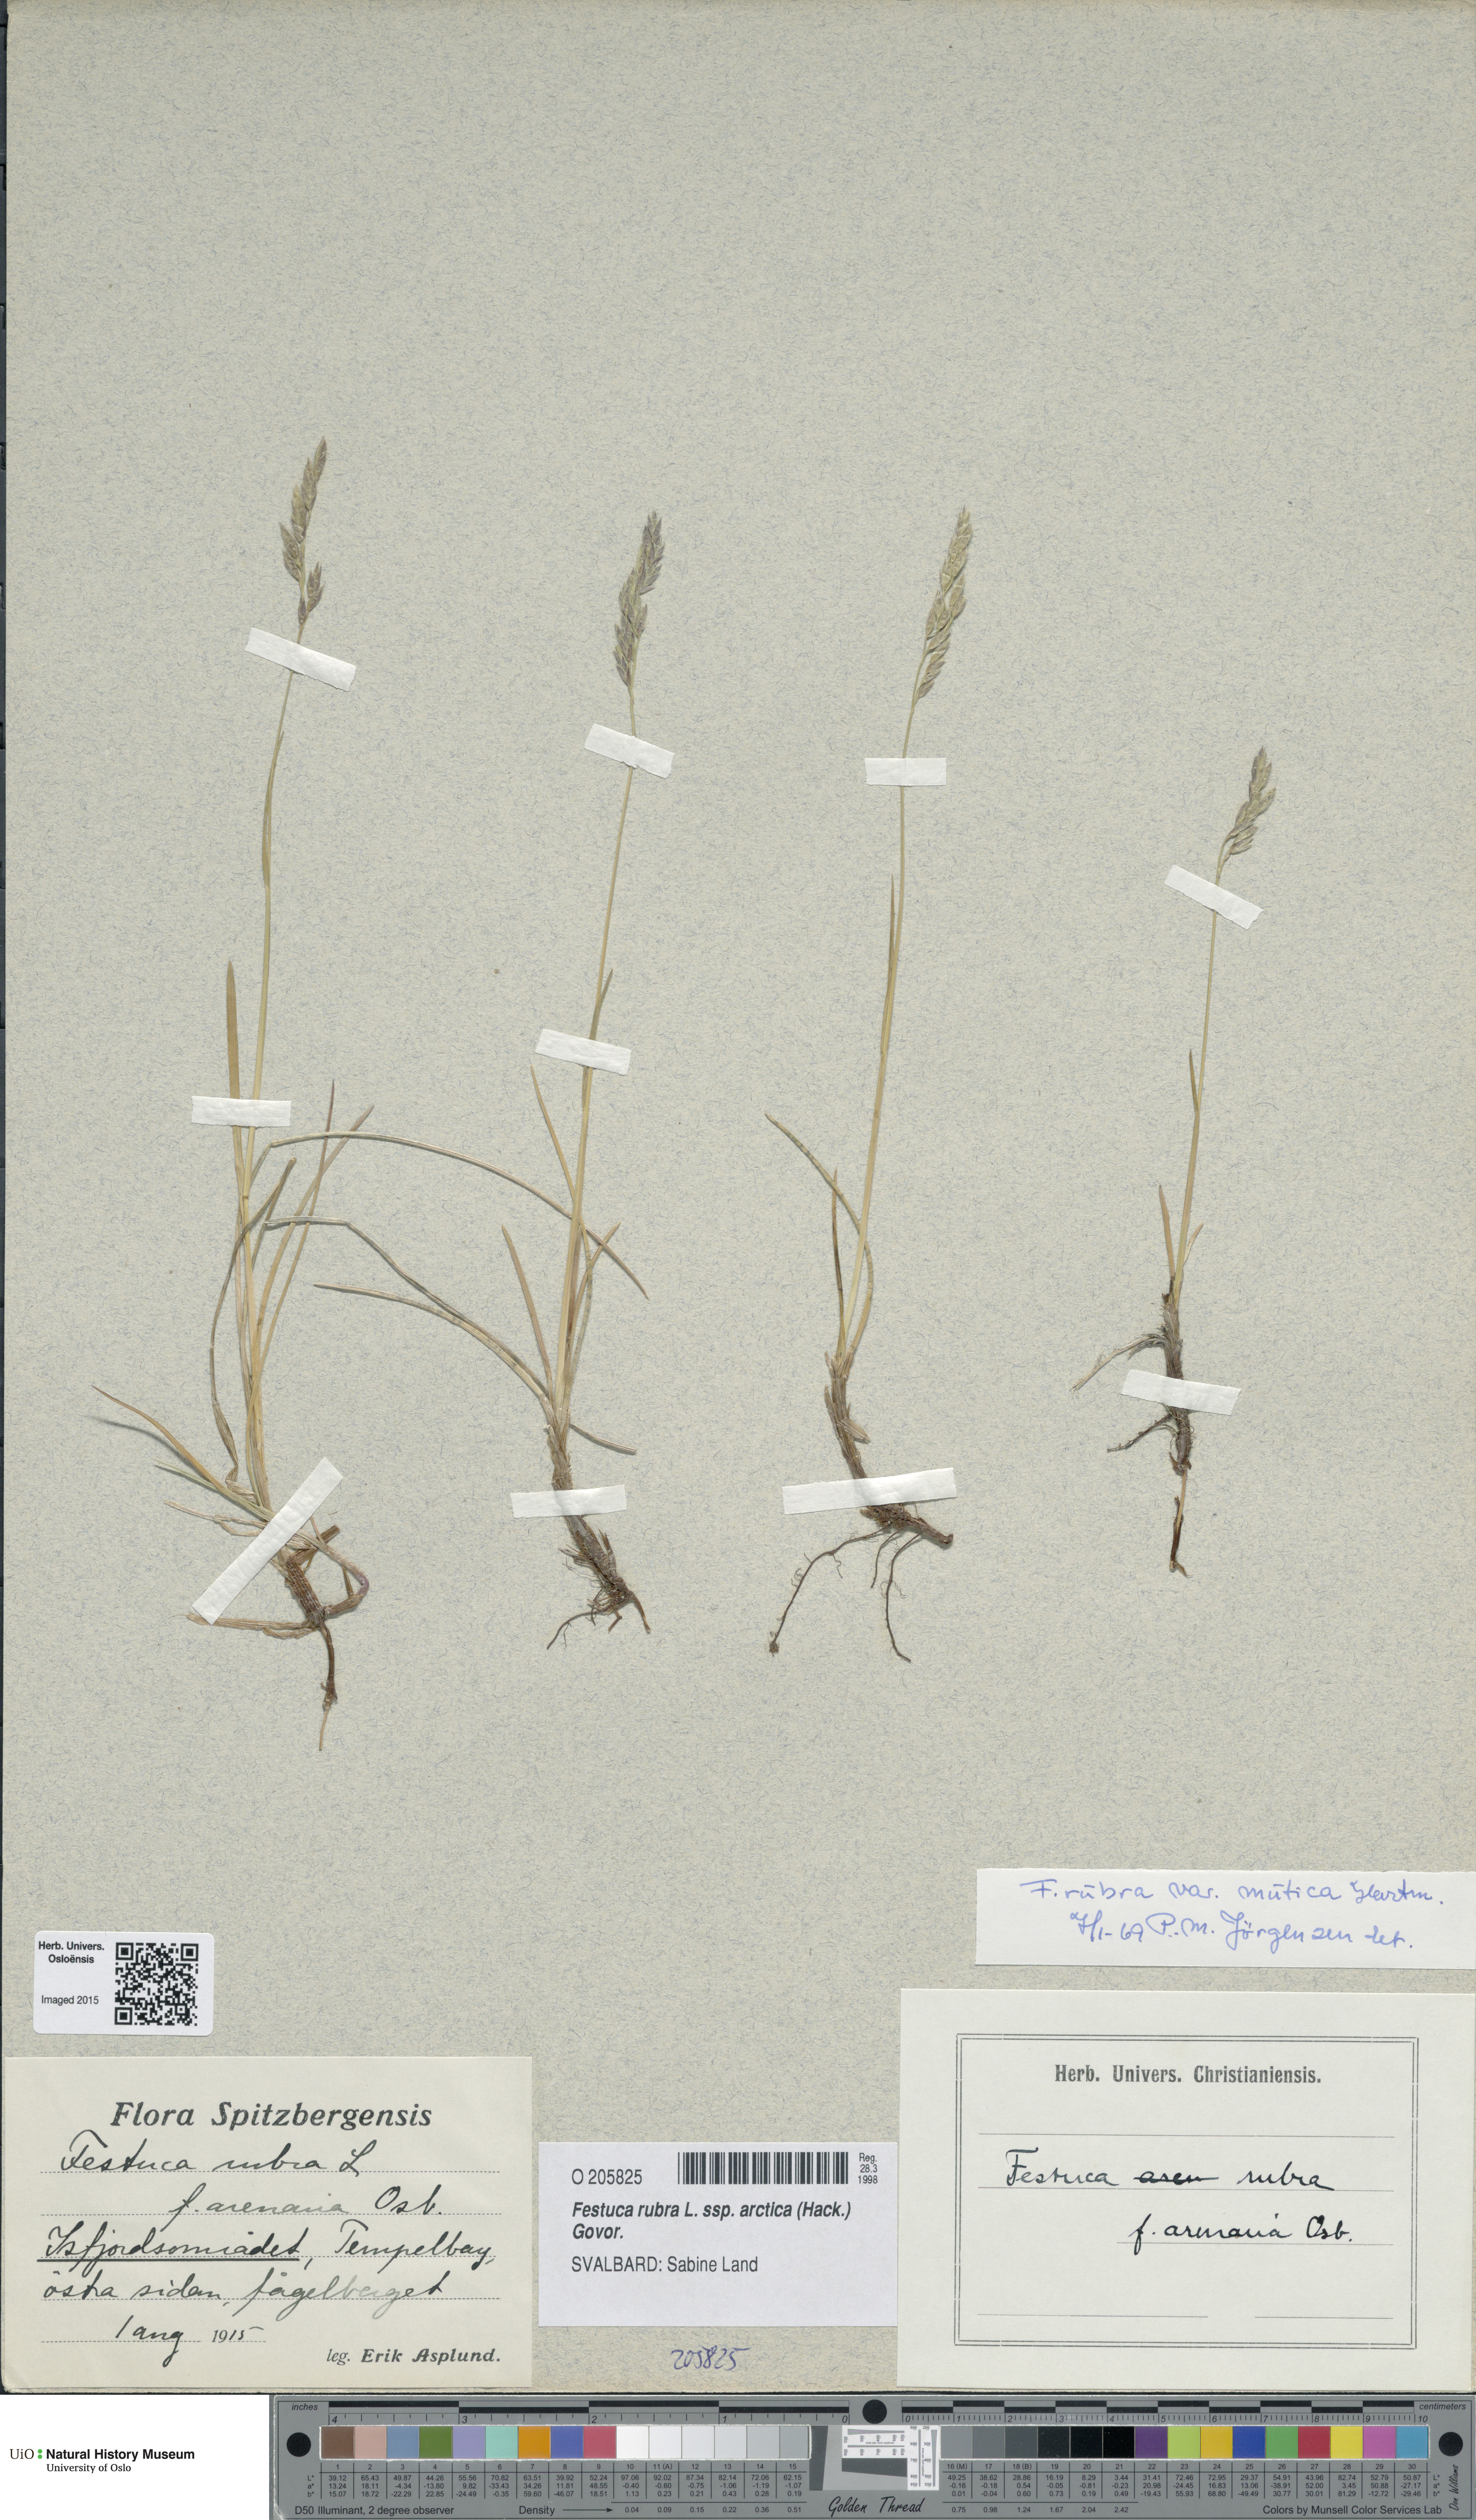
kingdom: Plantae
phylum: Tracheophyta
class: Liliopsida
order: Poales
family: Poaceae
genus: Festuca
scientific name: Festuca richardsonii
